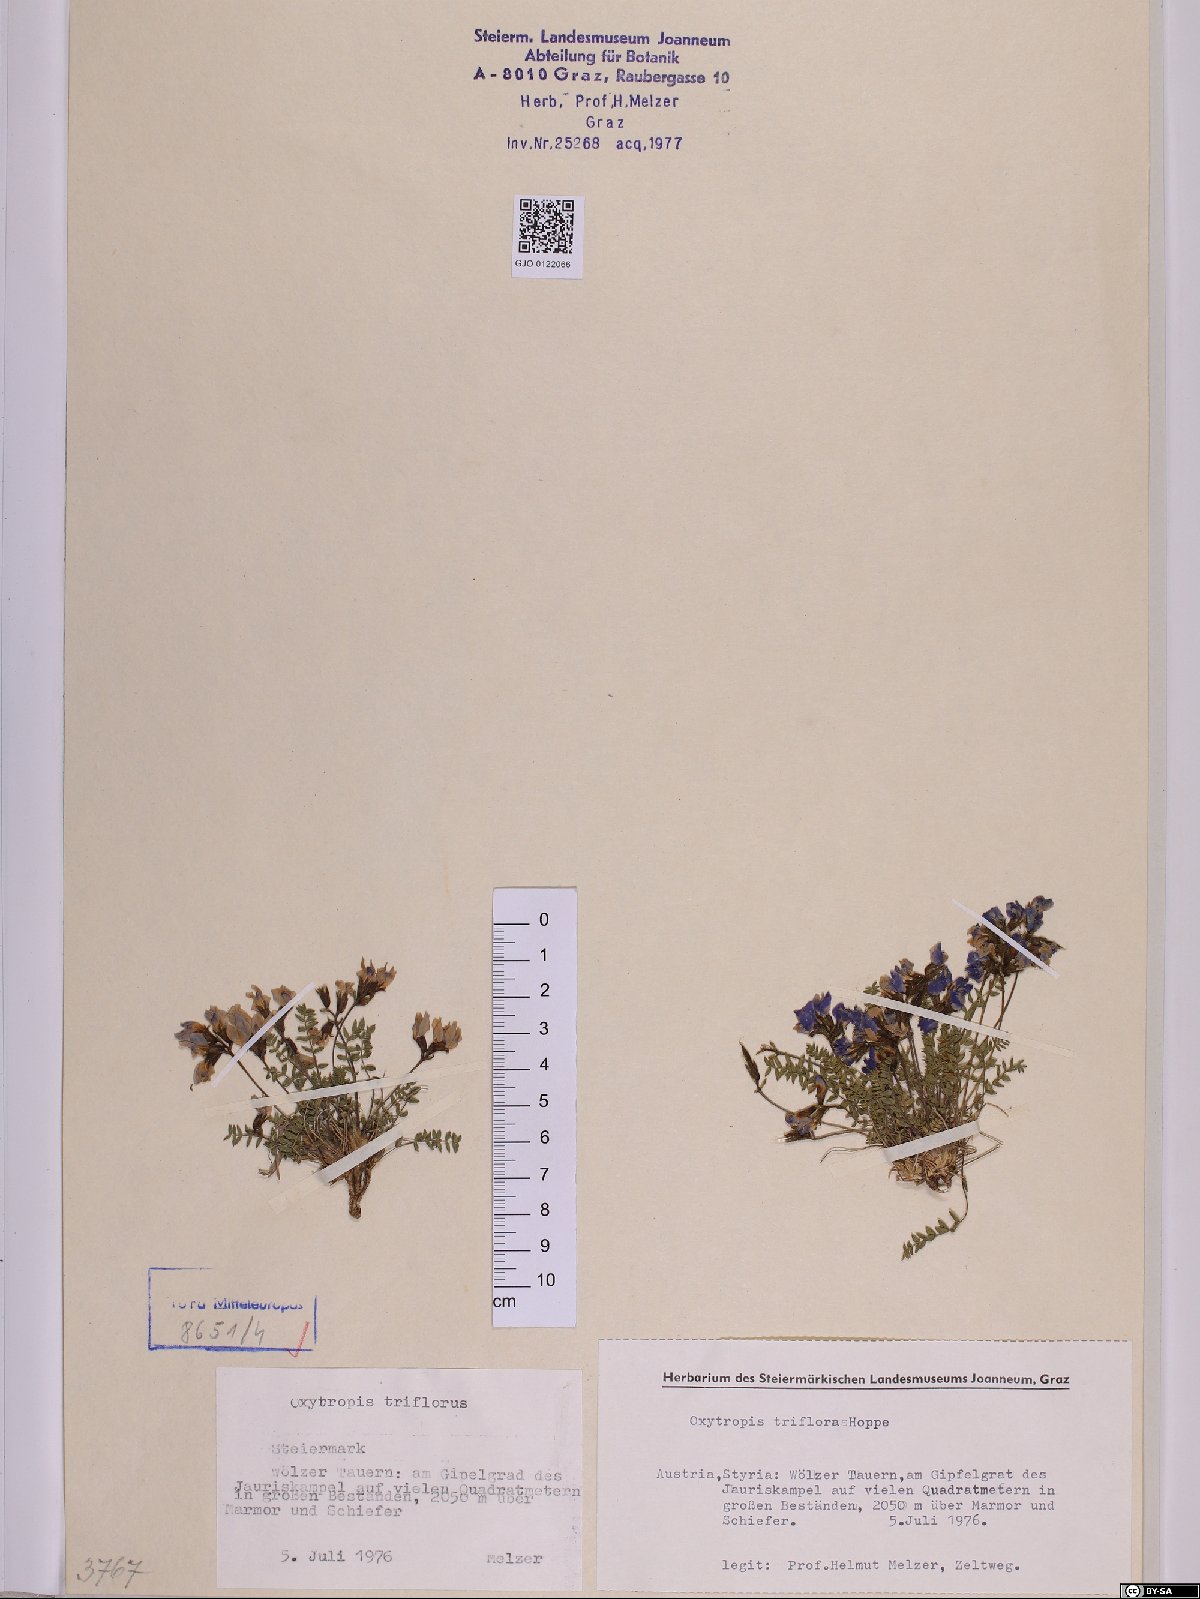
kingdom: Plantae
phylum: Tracheophyta
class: Magnoliopsida
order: Fabales
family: Fabaceae
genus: Oxytropis
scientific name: Oxytropis triflora
